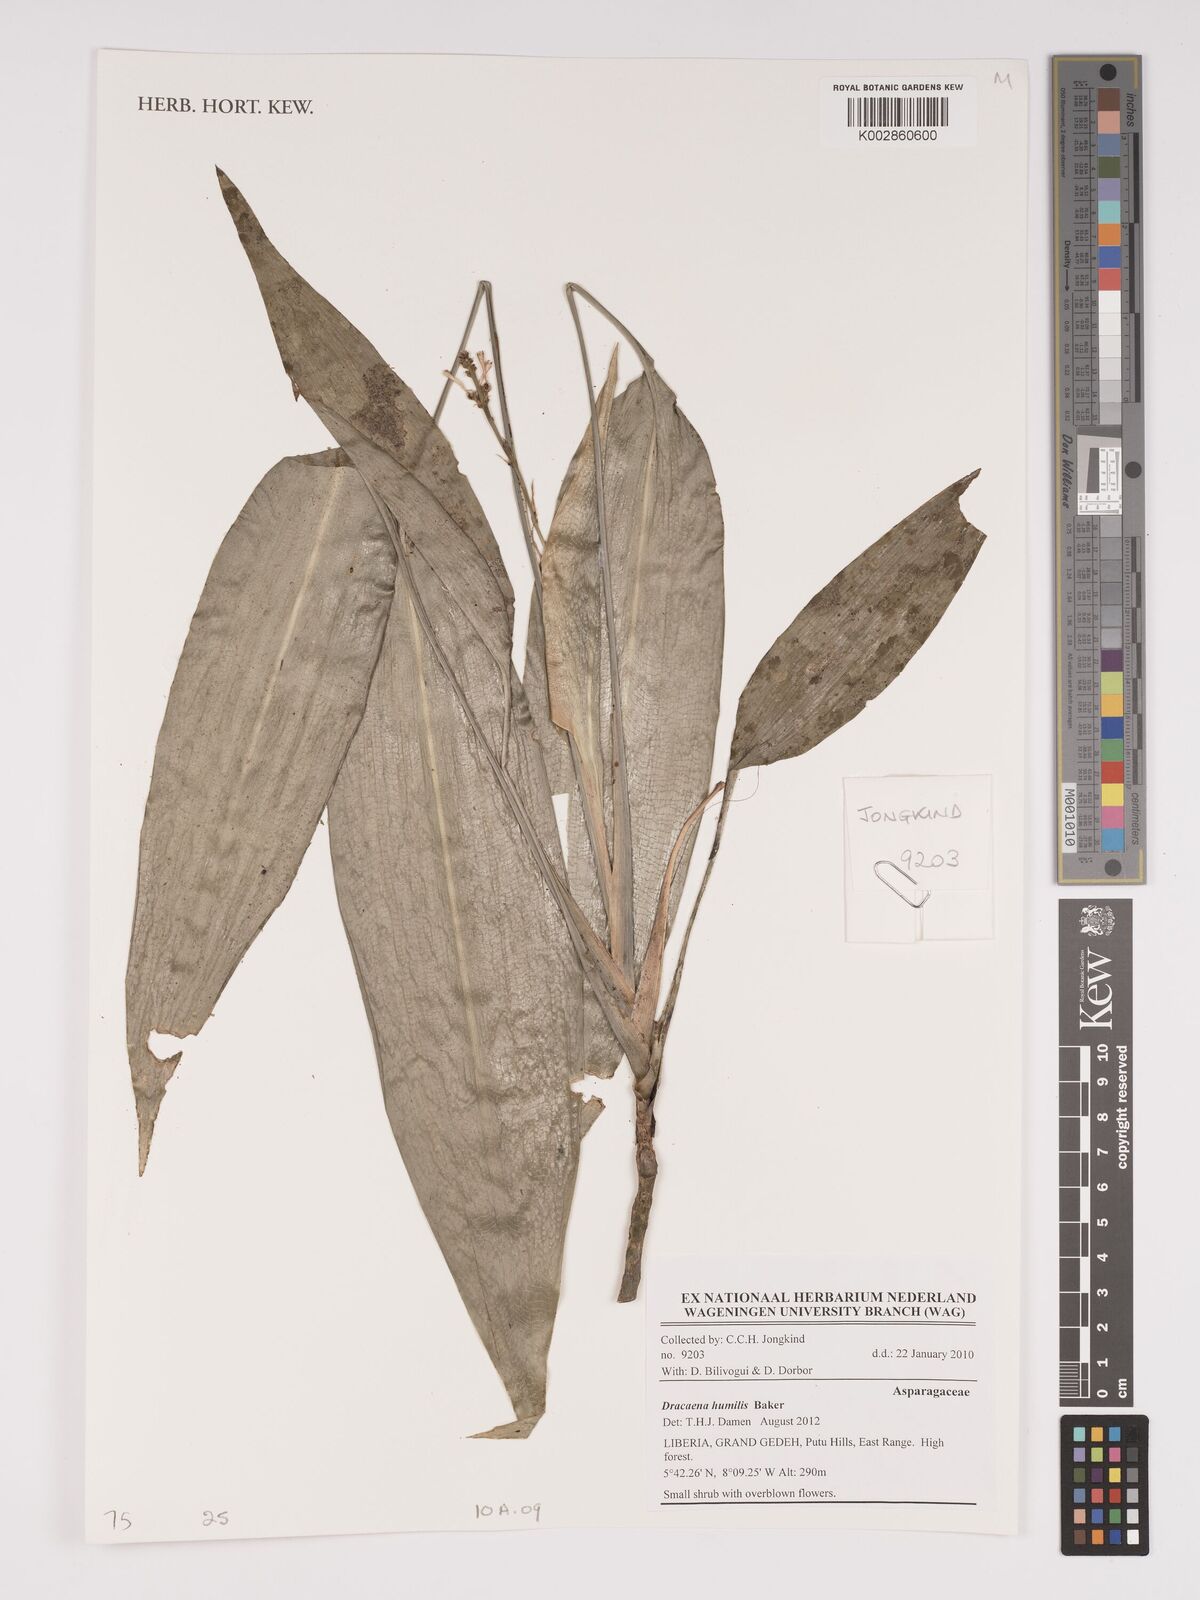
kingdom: Plantae
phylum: Tracheophyta
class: Liliopsida
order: Asparagales
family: Asparagaceae
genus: Dracaena
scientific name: Dracaena aubryana
